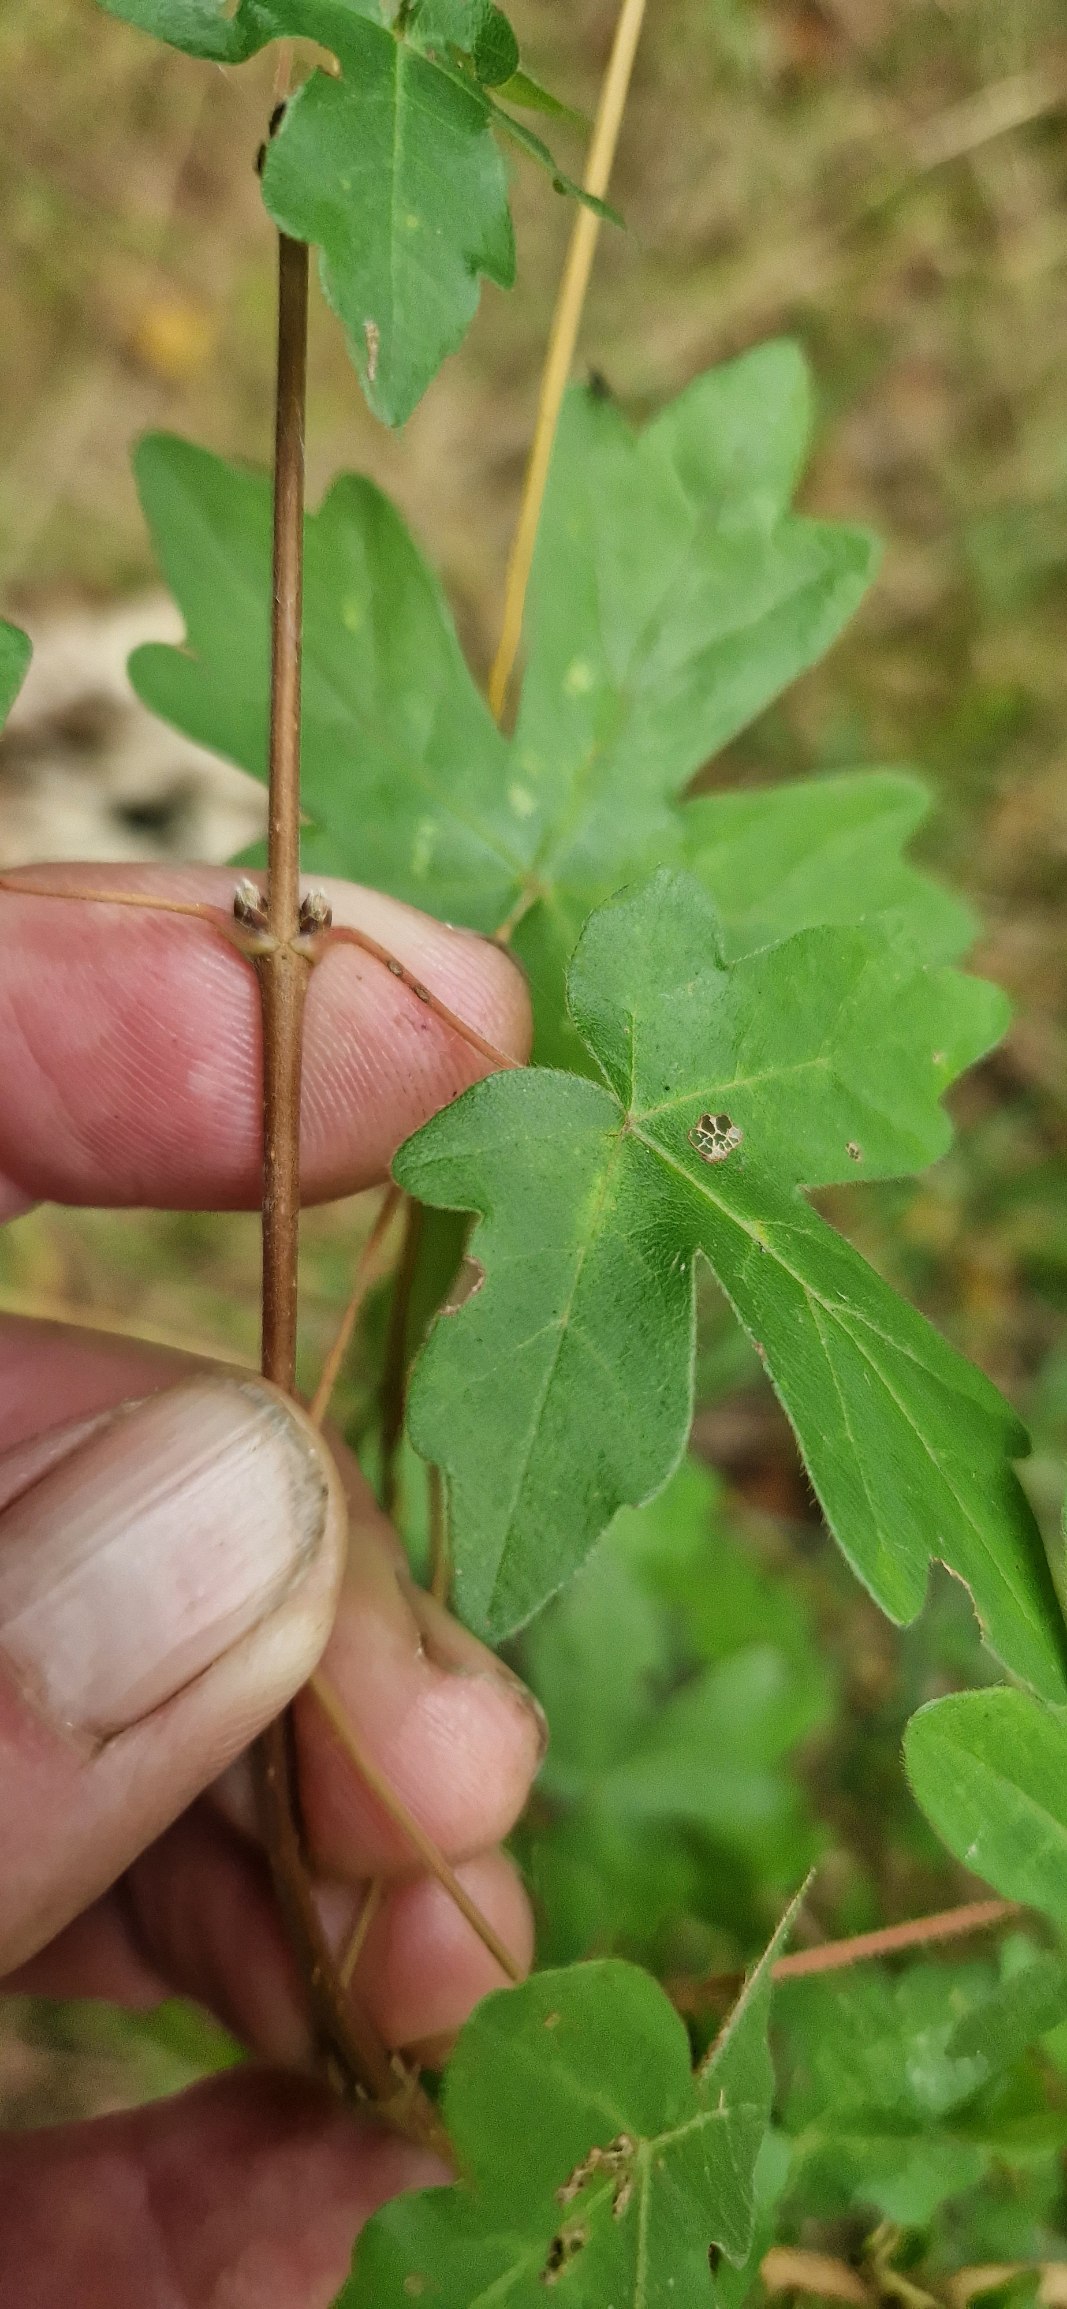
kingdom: Plantae
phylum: Tracheophyta
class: Magnoliopsida
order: Sapindales
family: Sapindaceae
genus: Acer
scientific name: Acer campestre
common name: Navr
